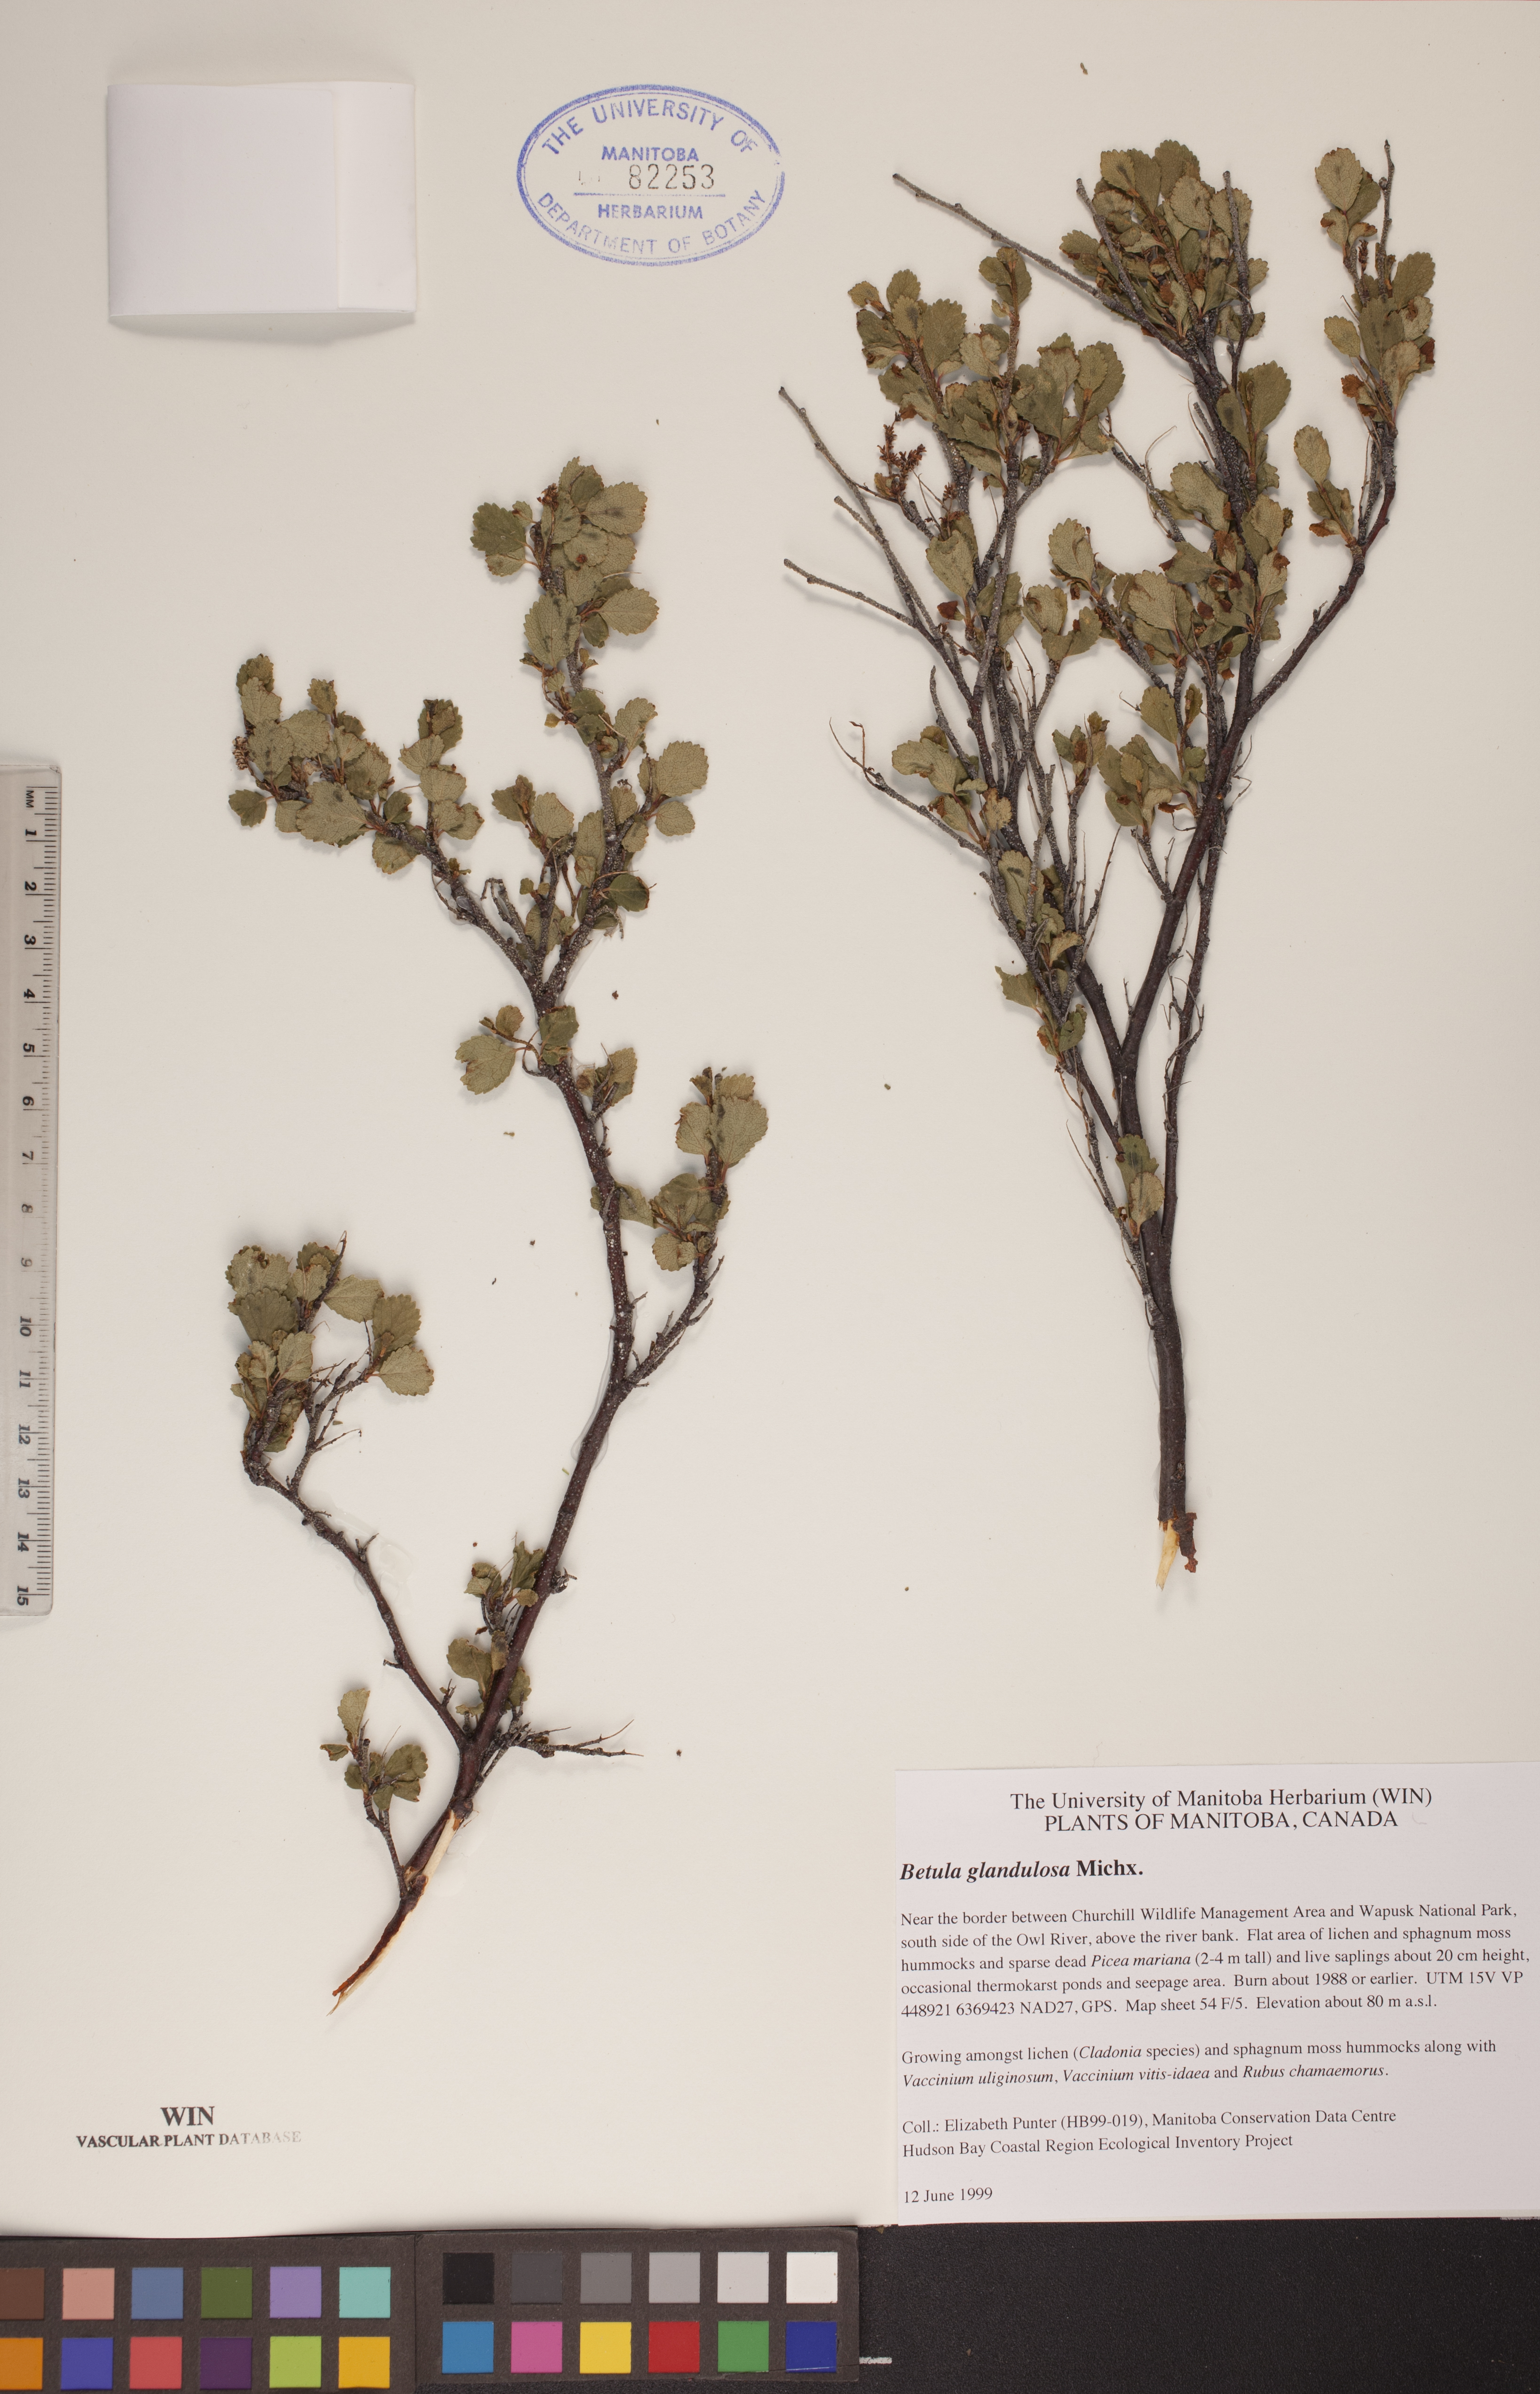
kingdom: Plantae
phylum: Tracheophyta
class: Magnoliopsida
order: Fagales
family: Betulaceae
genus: Betula
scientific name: Betula glandulosa
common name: Dwarf birch
